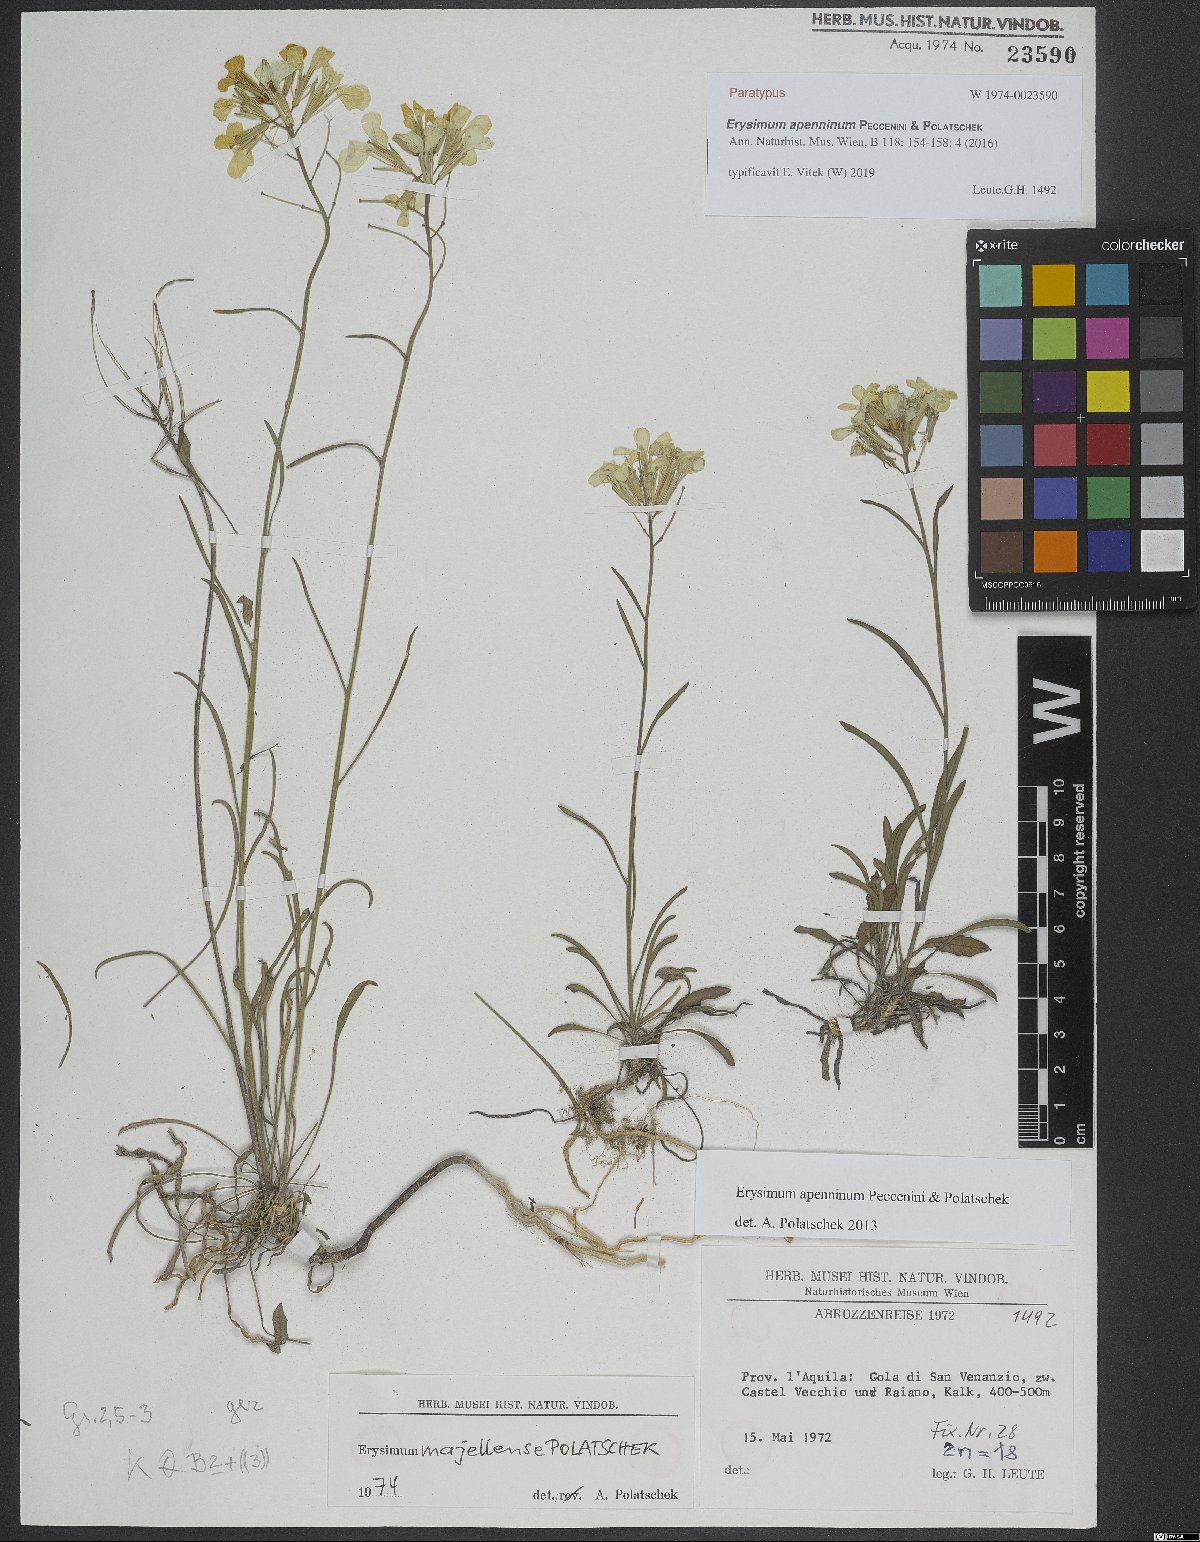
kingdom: Plantae
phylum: Tracheophyta
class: Magnoliopsida
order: Brassicales
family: Brassicaceae
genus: Erysimum
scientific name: Erysimum apenninum
